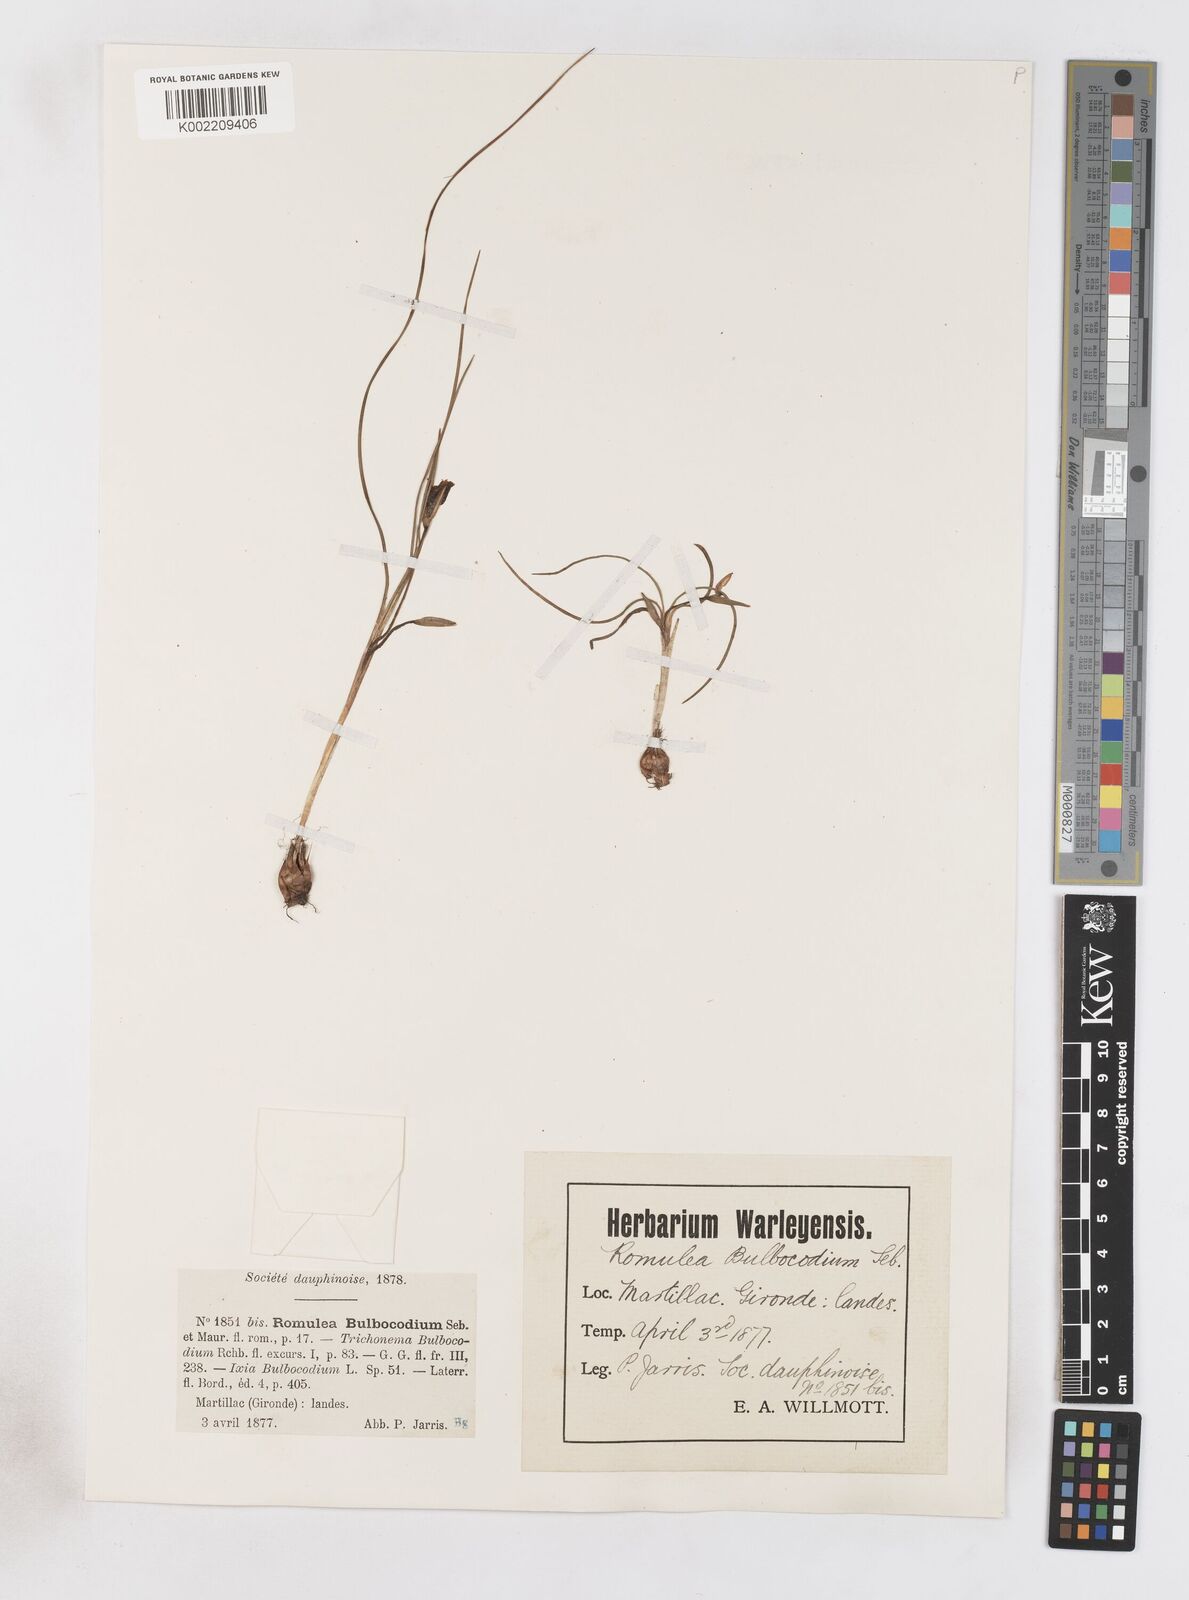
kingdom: Plantae
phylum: Tracheophyta
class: Liliopsida
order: Asparagales
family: Iridaceae
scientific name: Iridaceae
